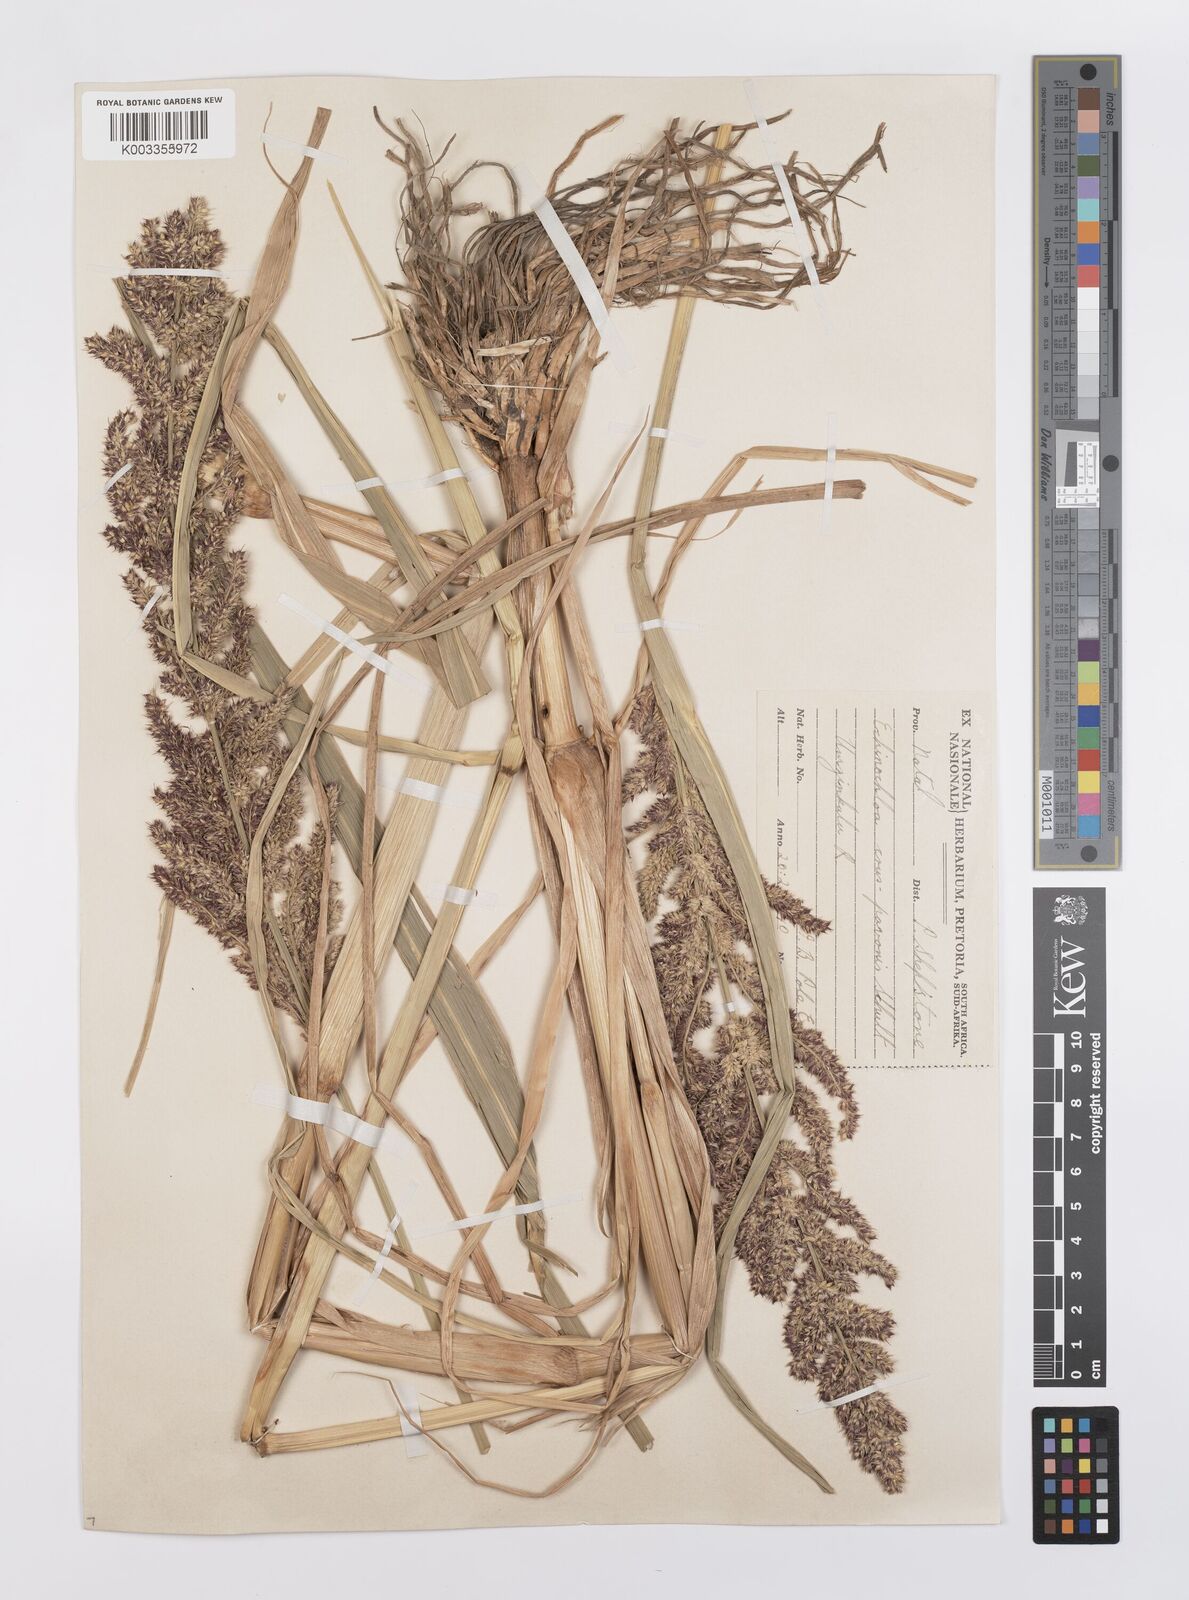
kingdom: Plantae
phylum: Tracheophyta
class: Liliopsida
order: Poales
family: Poaceae
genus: Echinochloa
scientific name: Echinochloa crus-pavonis
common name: Gulf cockspur grass
